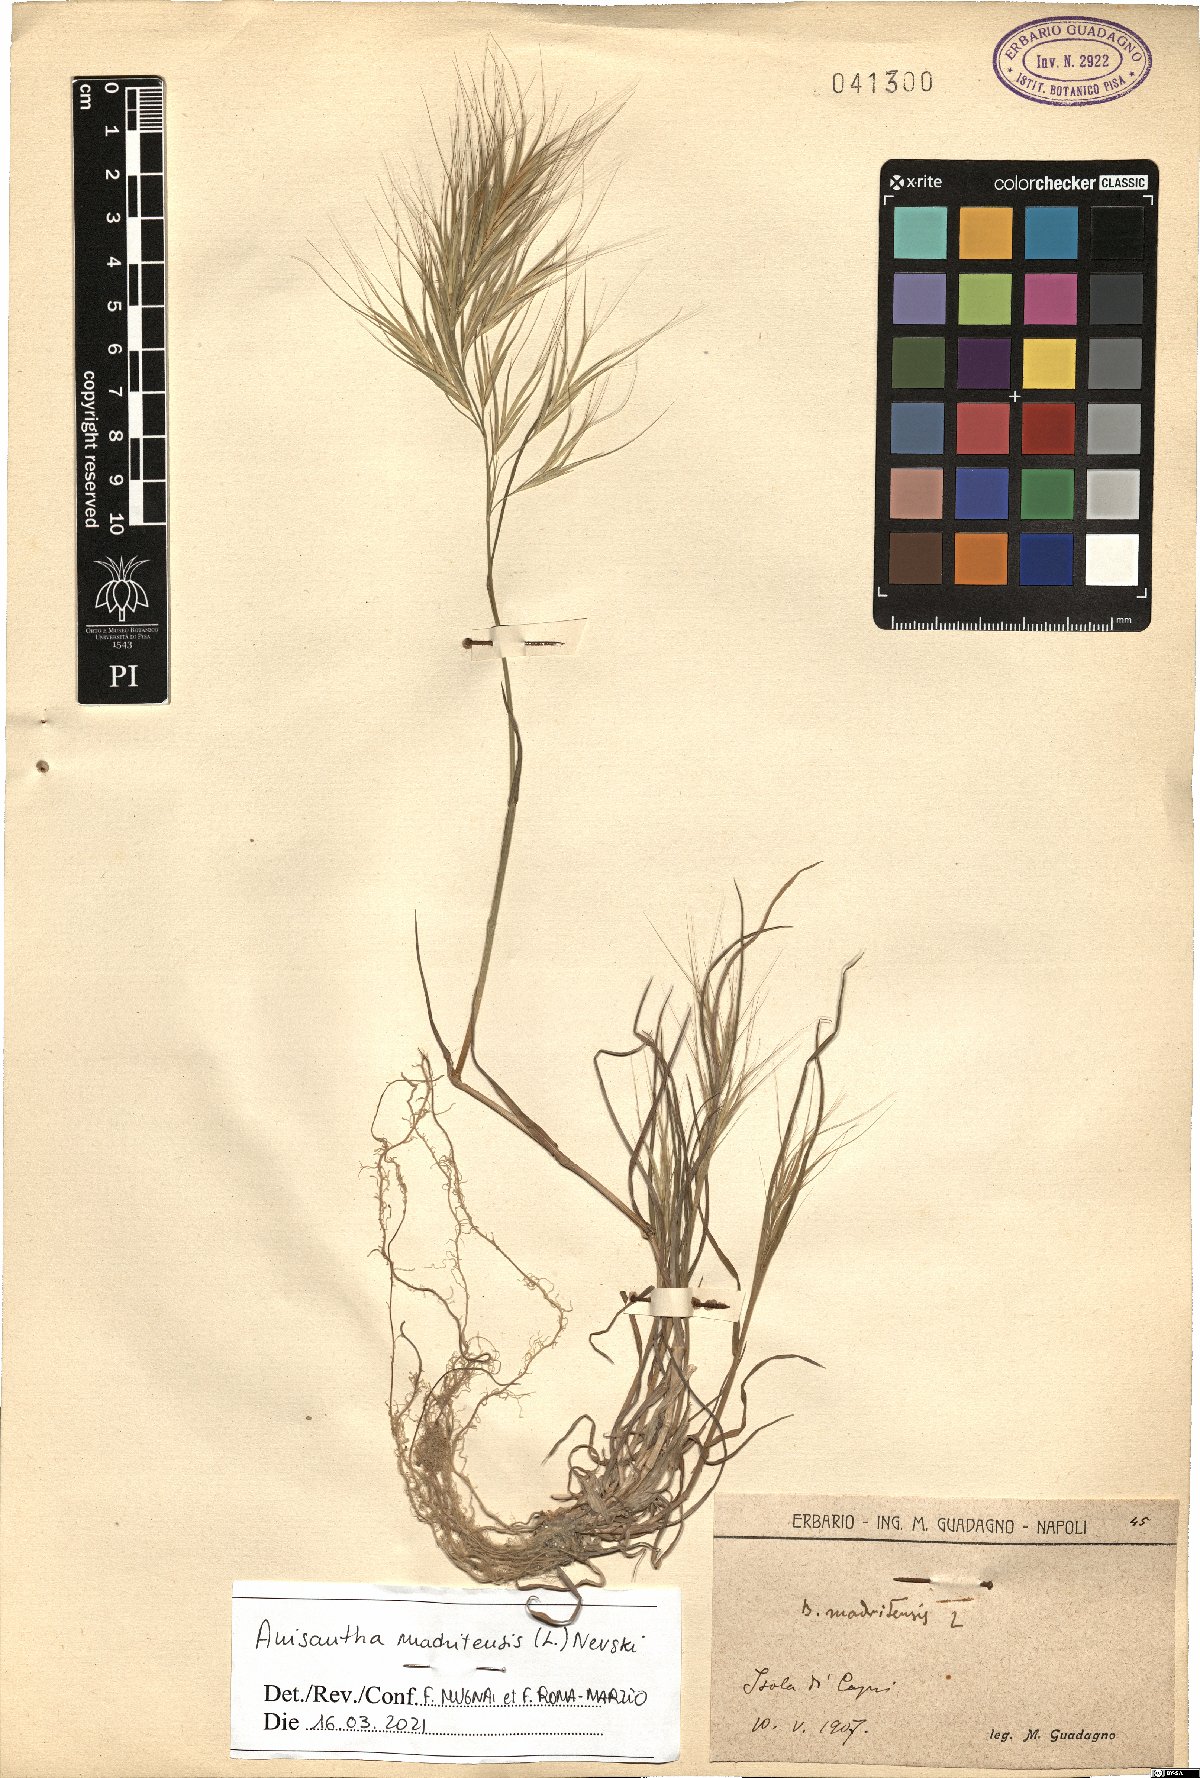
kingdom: Plantae
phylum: Tracheophyta
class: Liliopsida
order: Poales
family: Poaceae
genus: Bromus
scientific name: Bromus madritensis
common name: Compact brome
